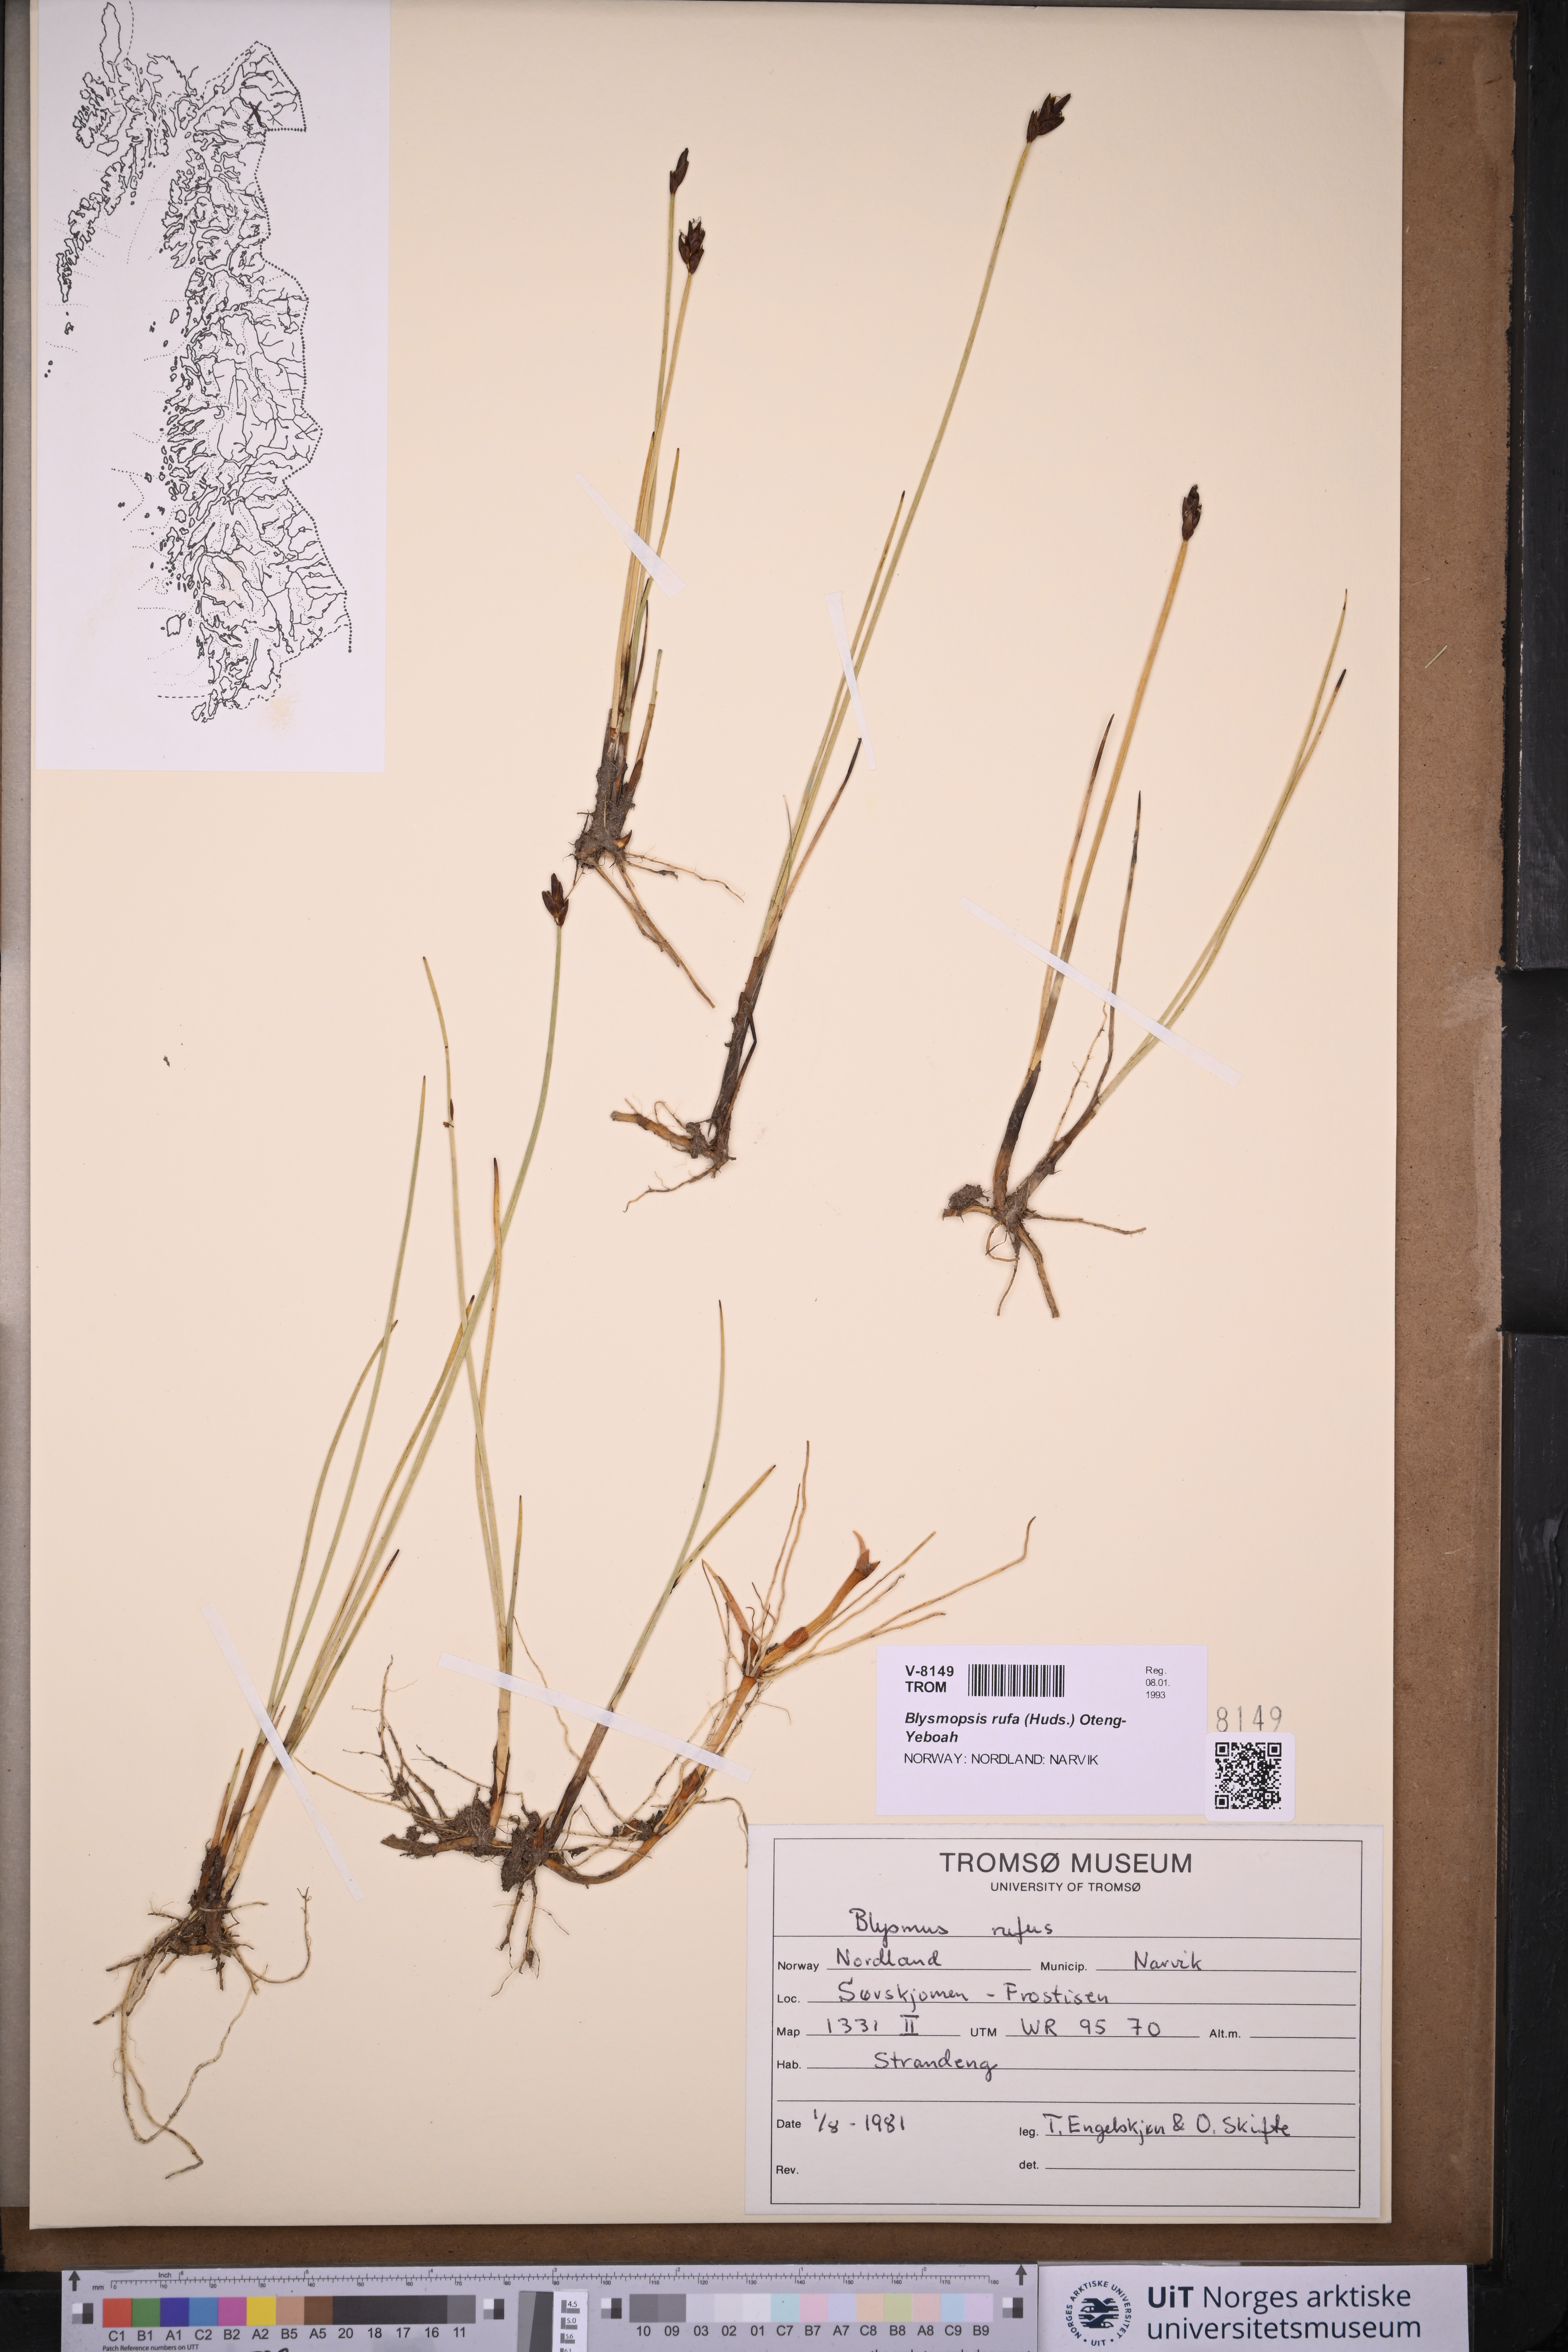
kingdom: Plantae
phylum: Tracheophyta
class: Liliopsida
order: Poales
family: Cyperaceae
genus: Blysmus
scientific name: Blysmus rufus
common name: Saltmarsh flat-sedge
